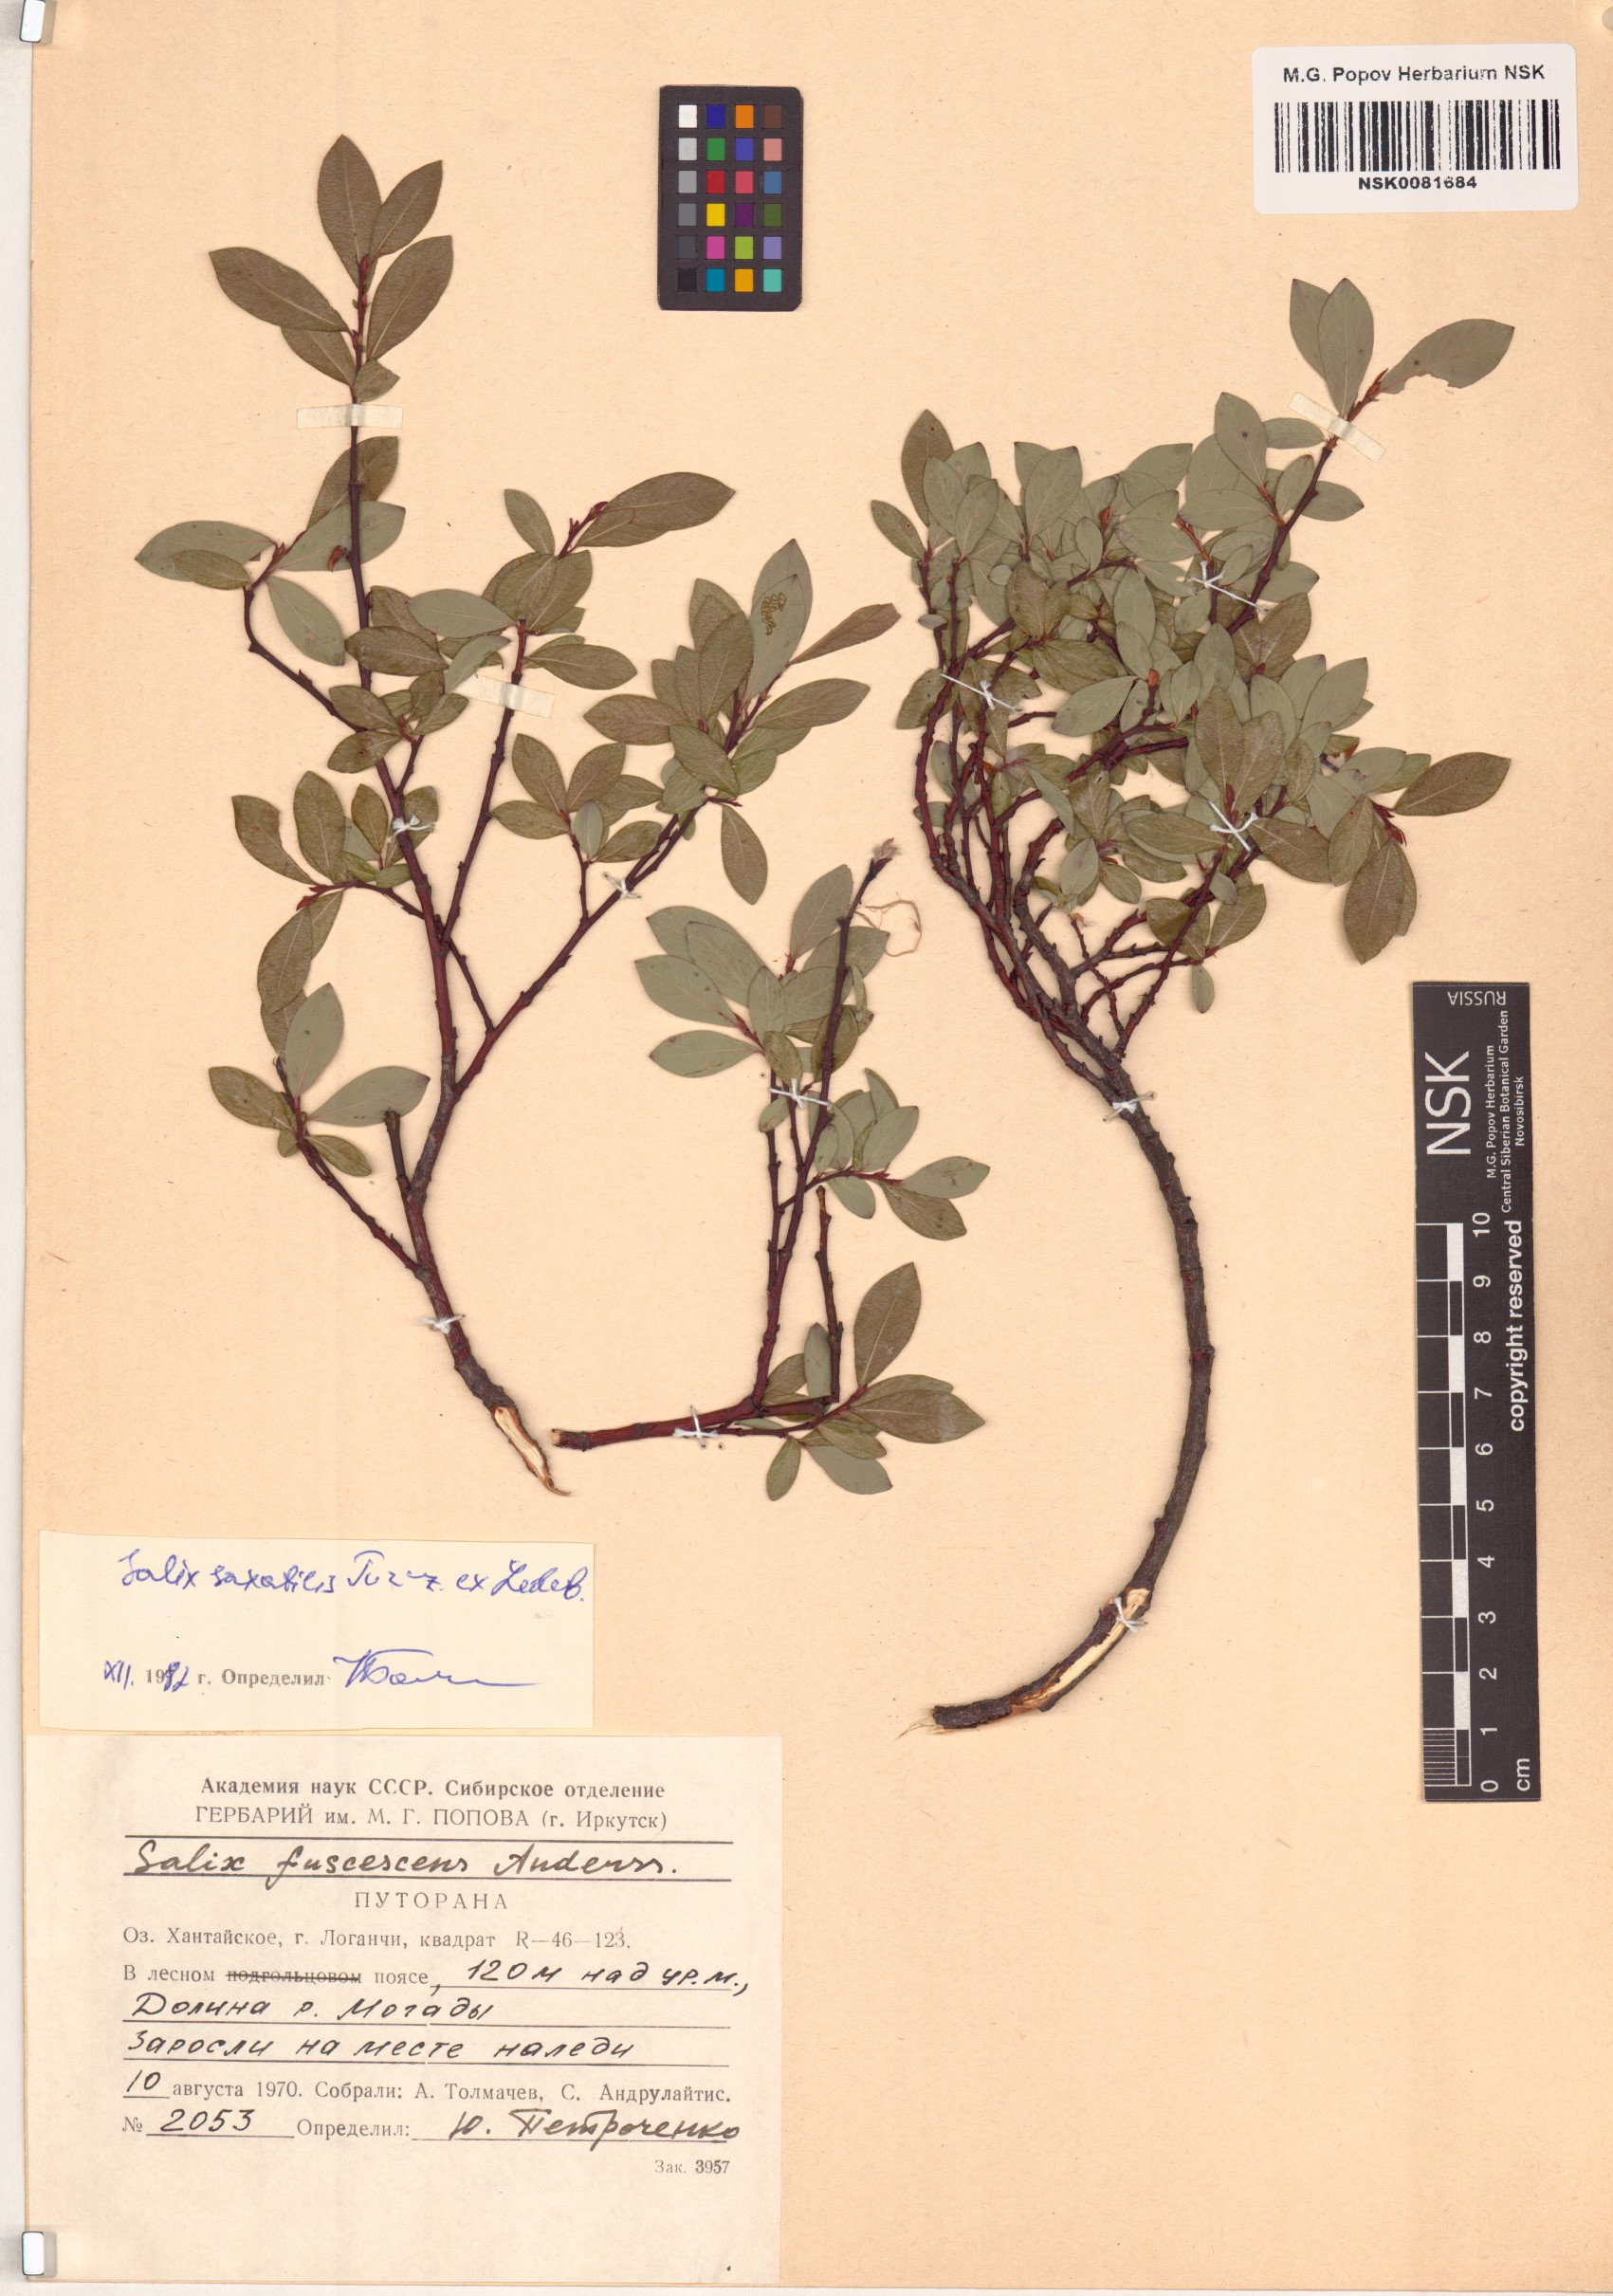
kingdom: Plantae
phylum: Tracheophyta
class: Magnoliopsida
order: Malpighiales
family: Salicaceae
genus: Salix
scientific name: Salix saxatilis
